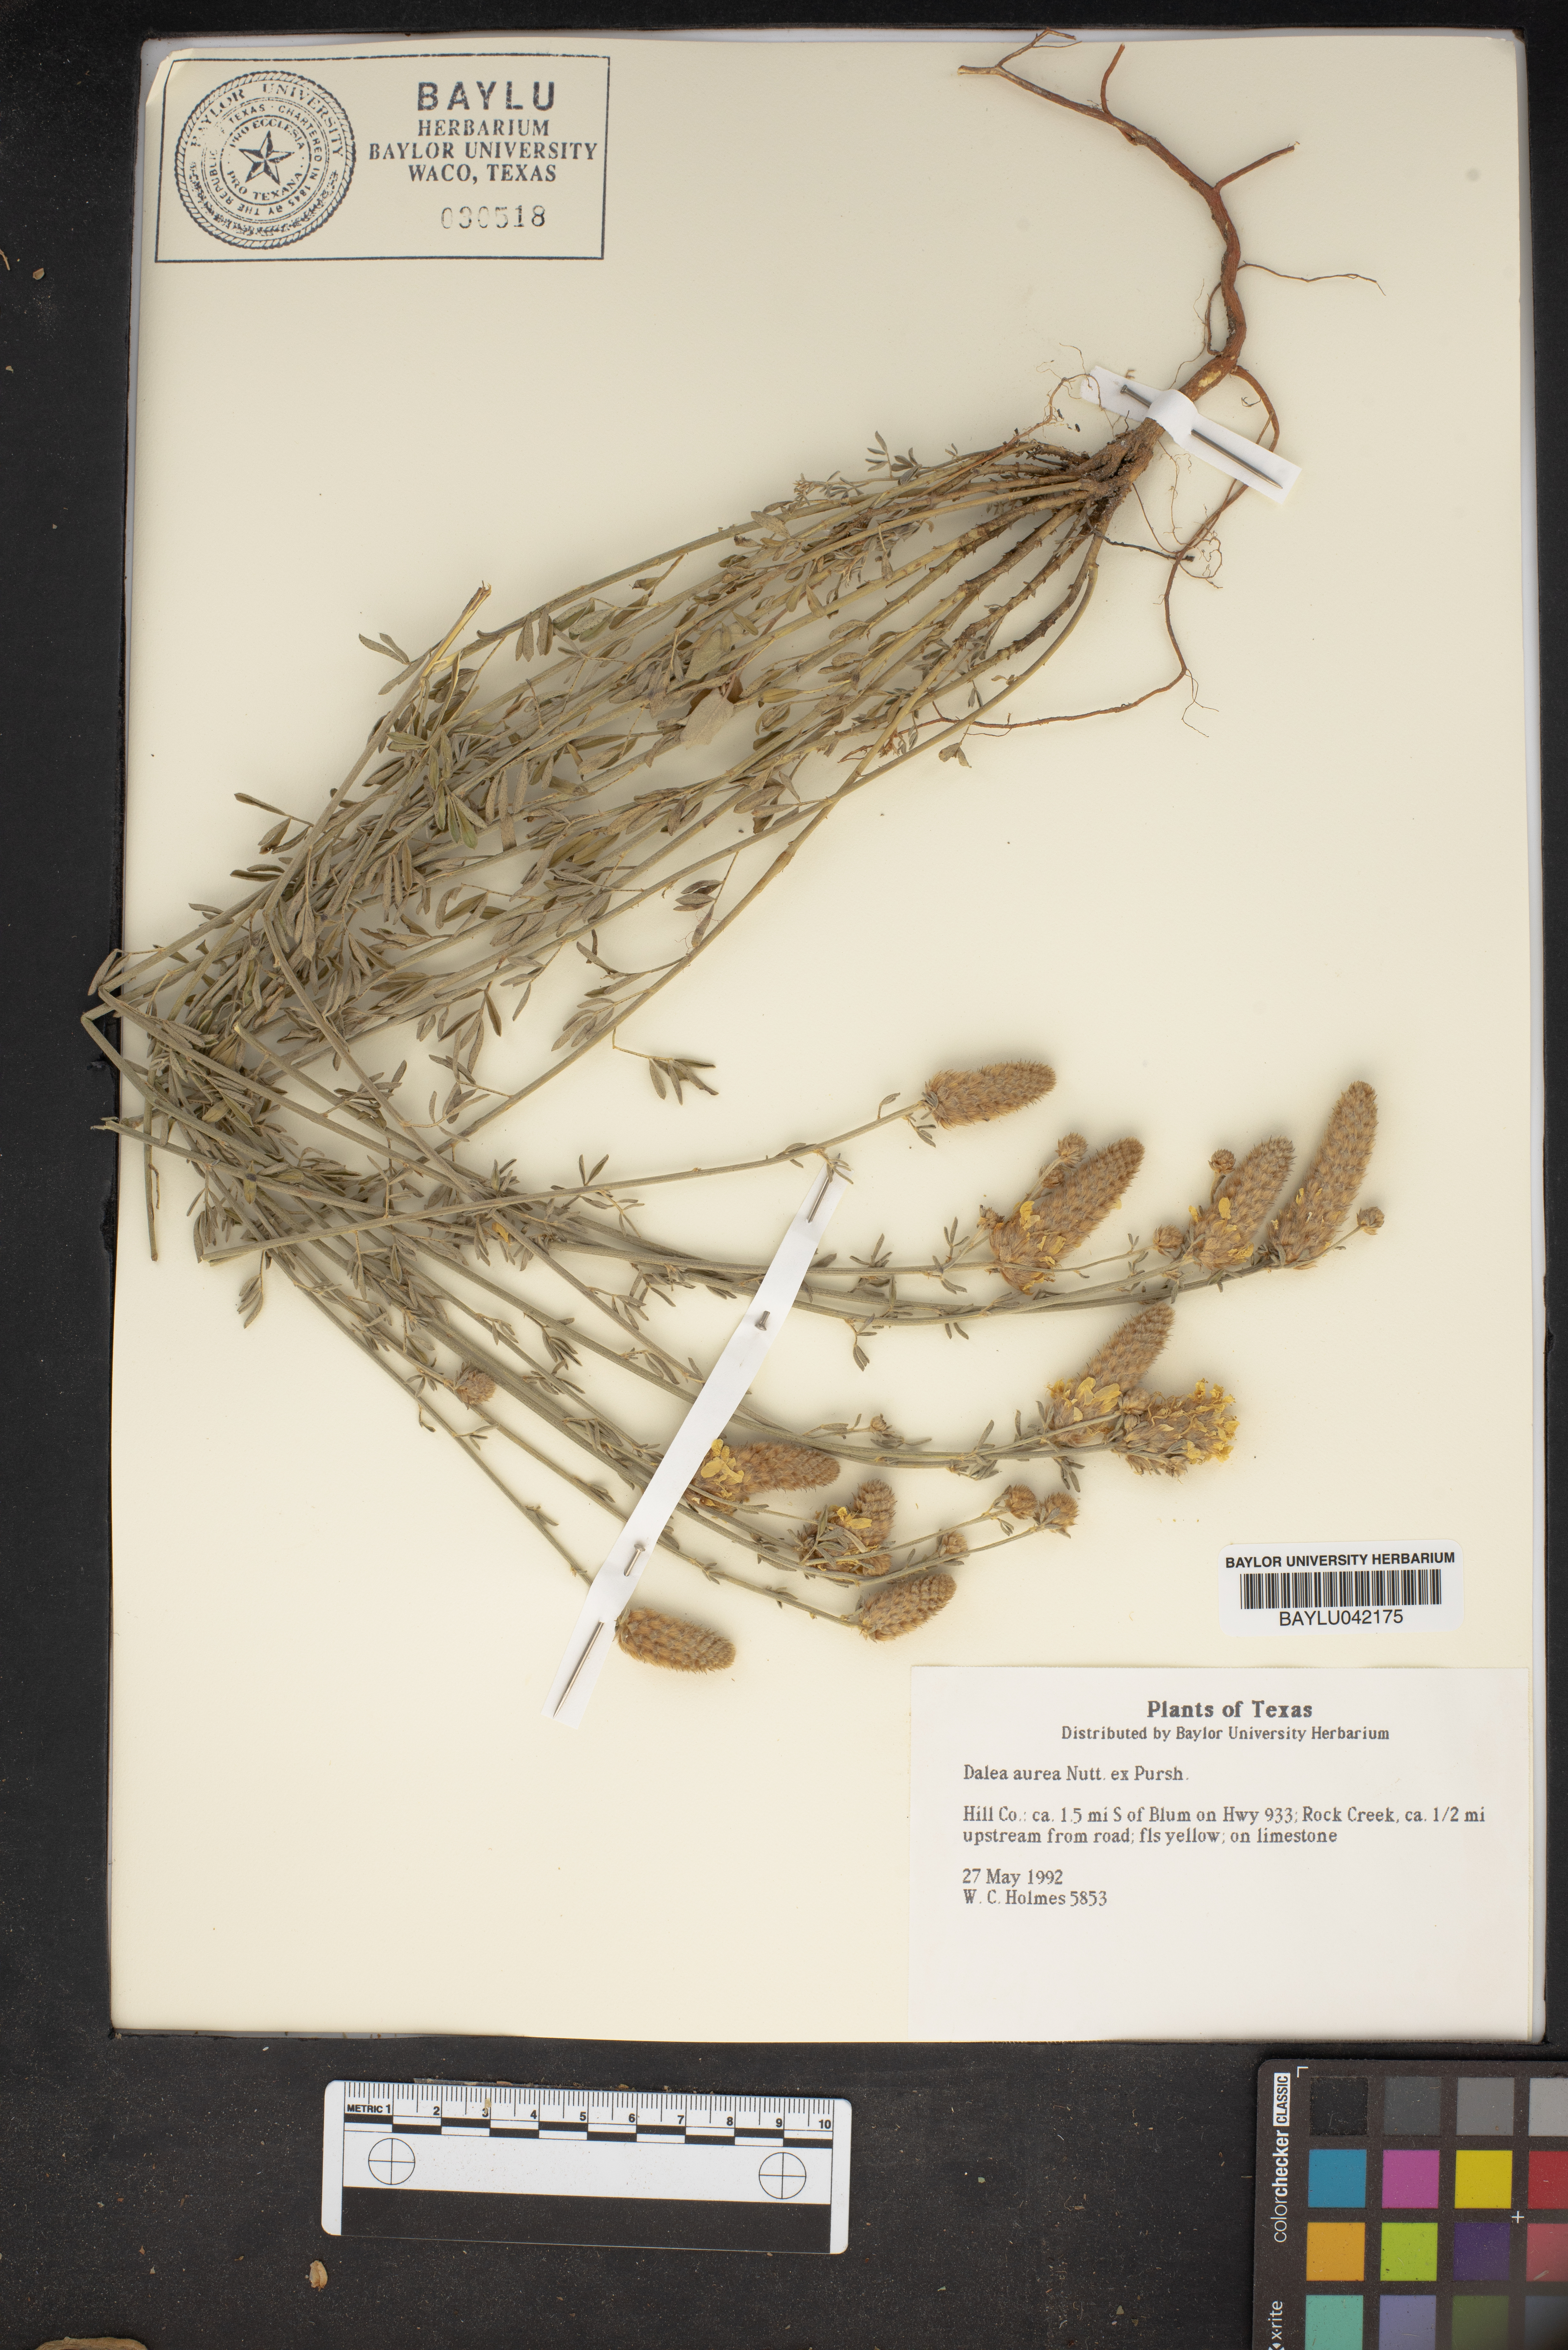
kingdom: Plantae
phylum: Tracheophyta
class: Magnoliopsida
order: Fabales
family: Fabaceae
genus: Dalea
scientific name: Dalea aurea
